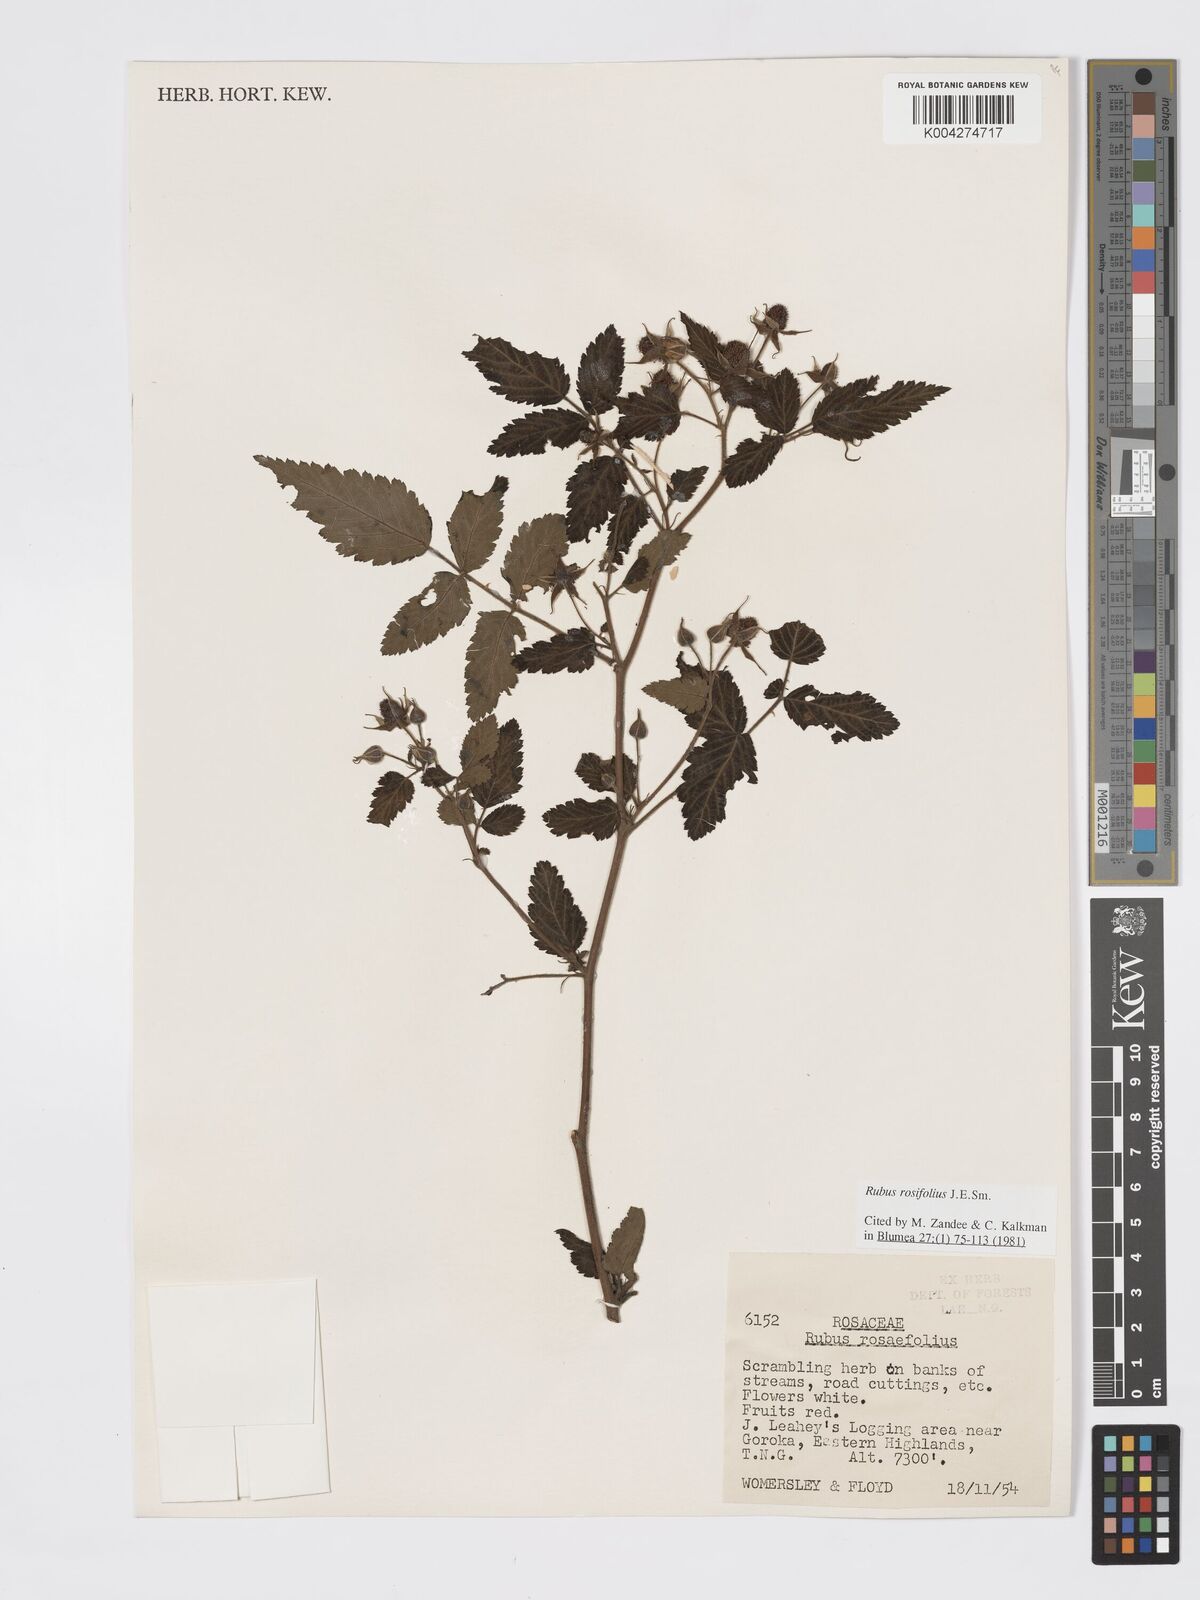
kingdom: Plantae
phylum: Tracheophyta
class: Magnoliopsida
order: Rosales
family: Rosaceae
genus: Rubus
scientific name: Rubus
